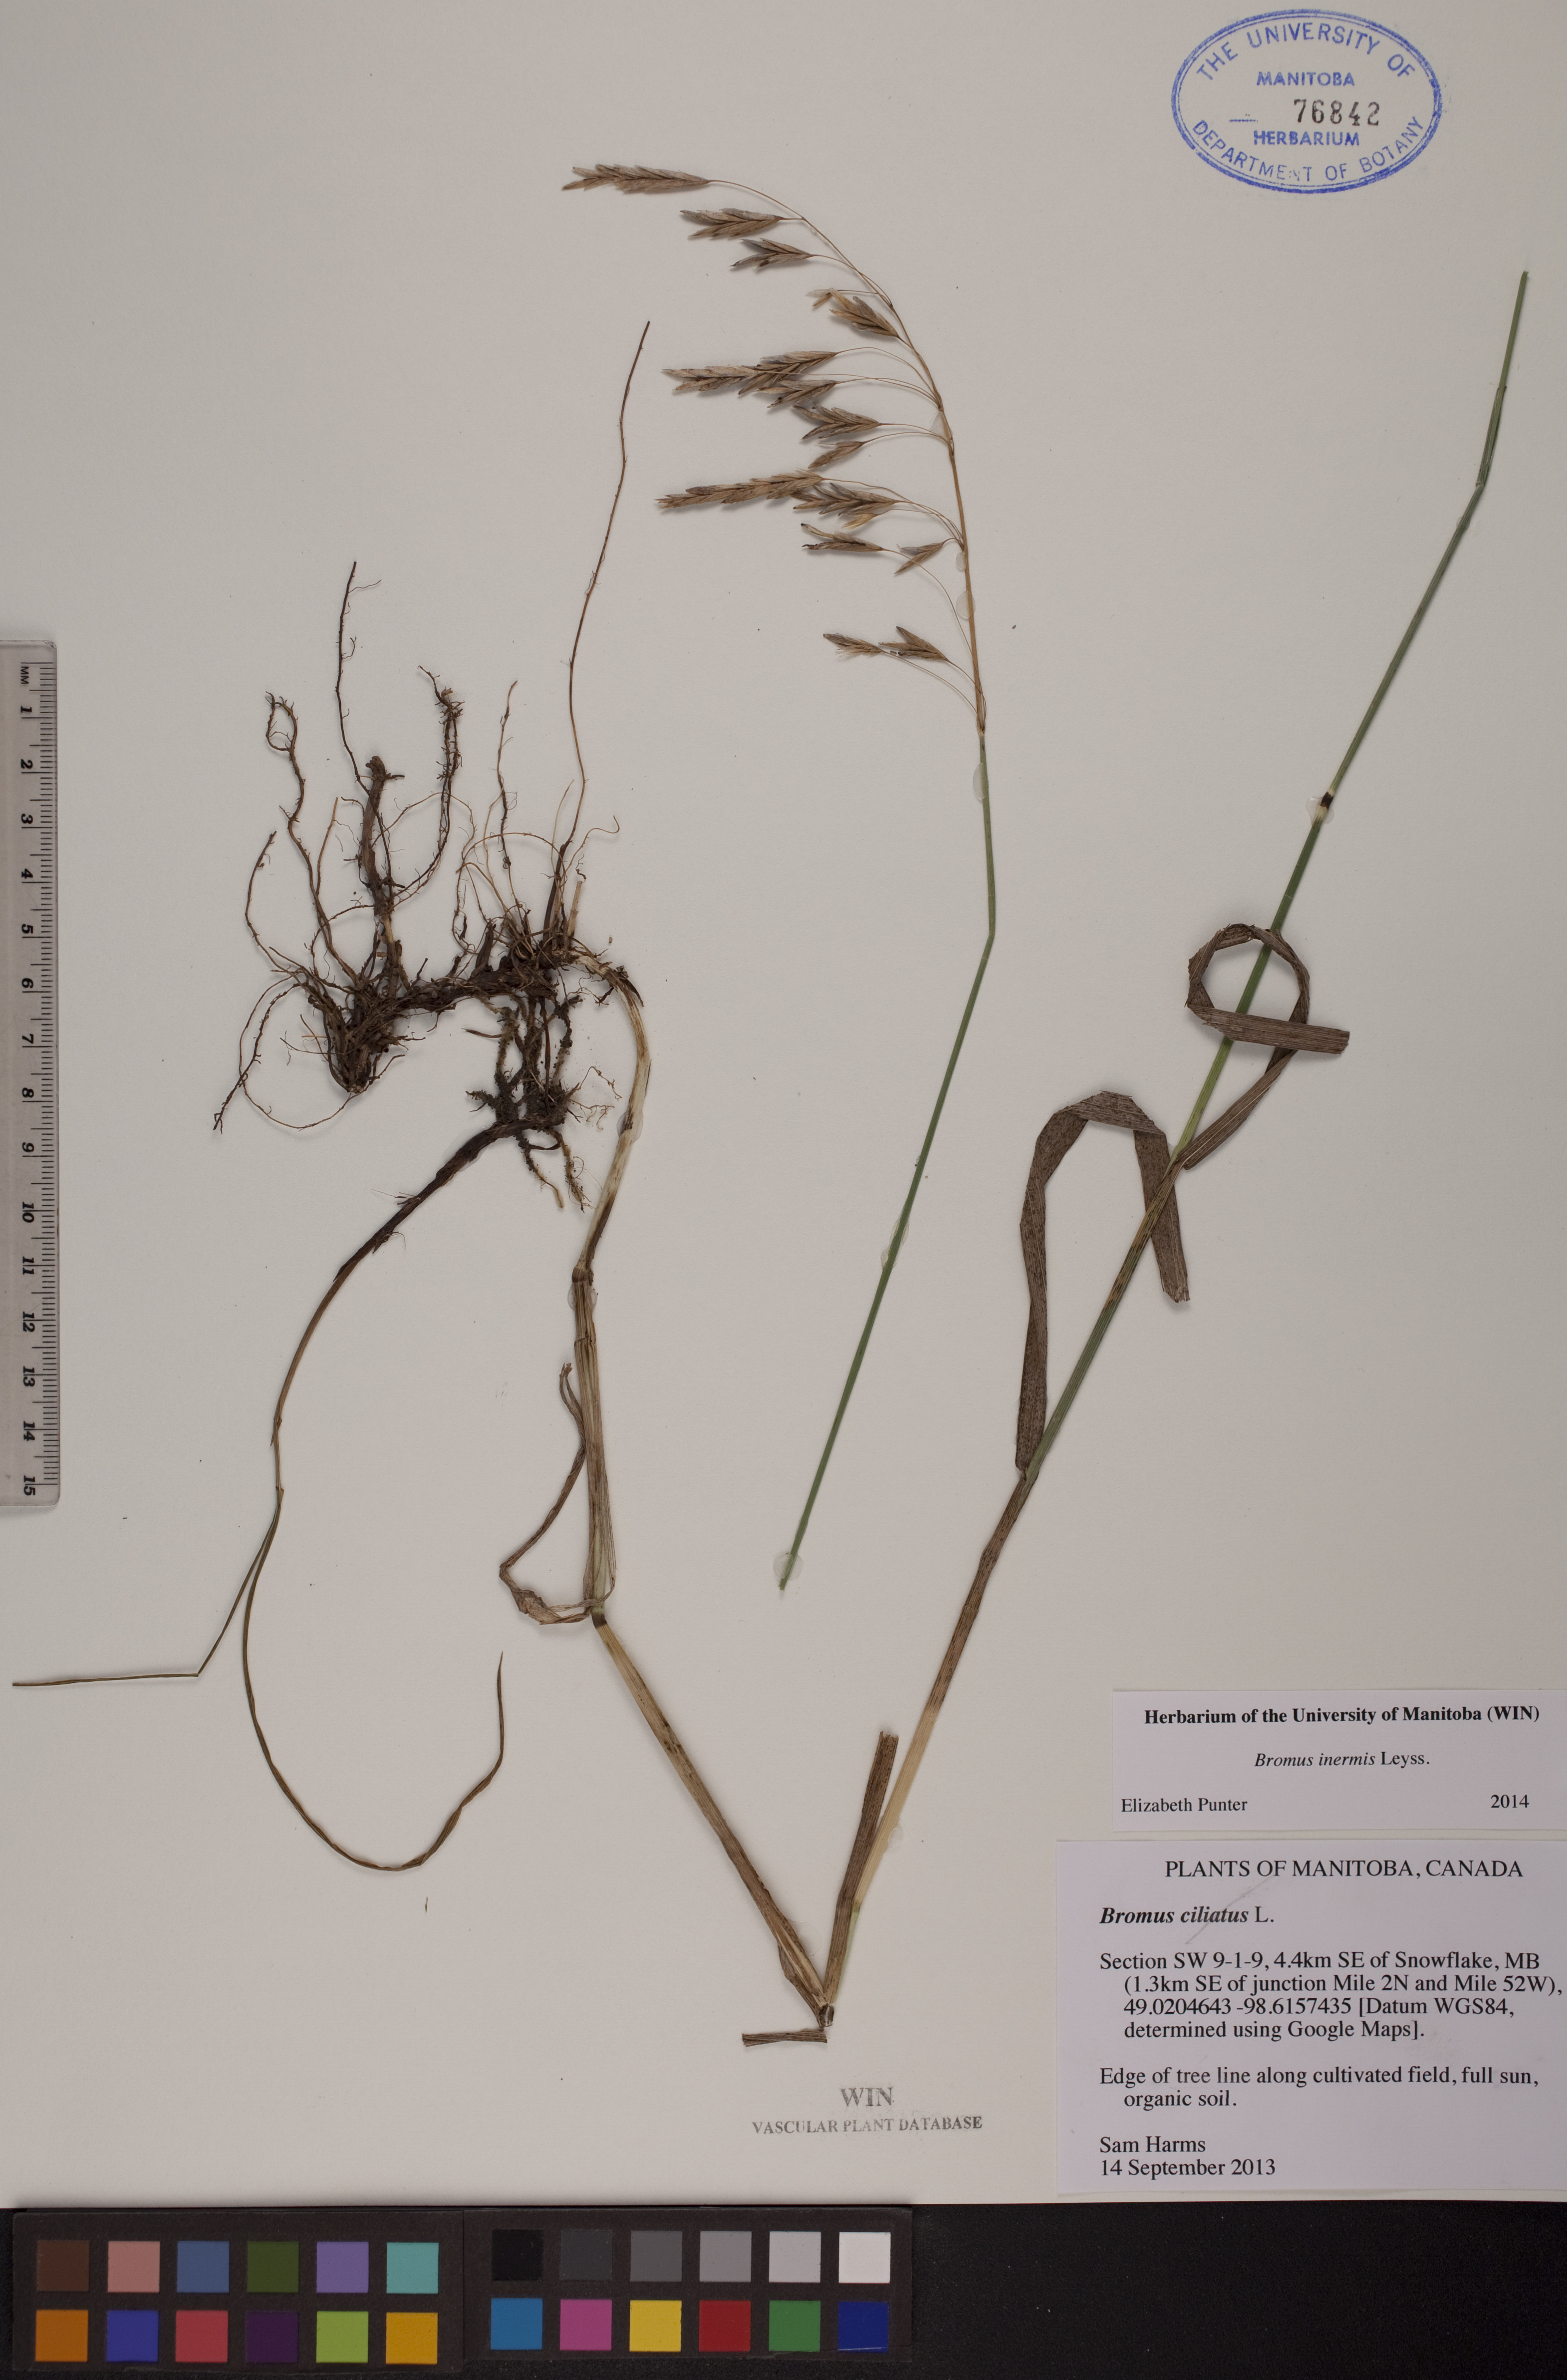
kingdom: Plantae
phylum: Tracheophyta
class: Liliopsida
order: Poales
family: Poaceae
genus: Bromus
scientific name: Bromus inermis
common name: Smooth brome
